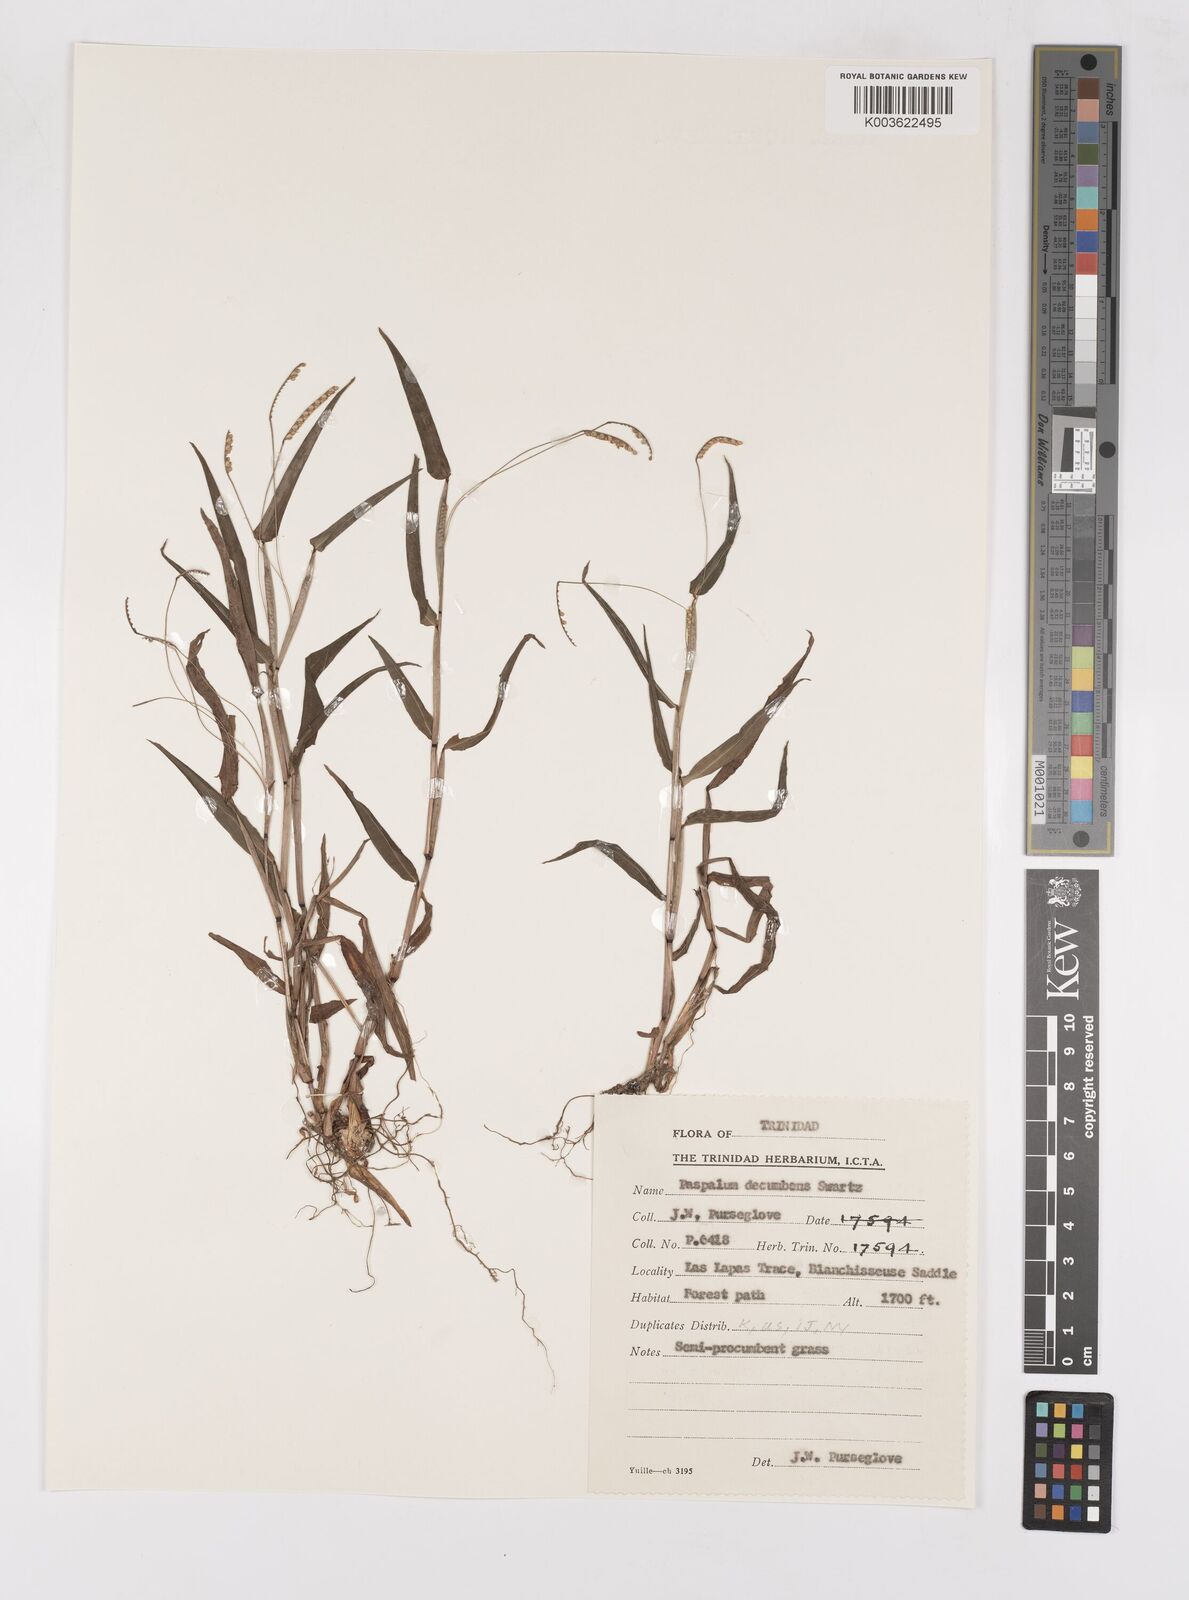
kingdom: Plantae
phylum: Tracheophyta
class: Liliopsida
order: Poales
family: Poaceae
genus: Paspalum
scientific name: Paspalum decumbens
